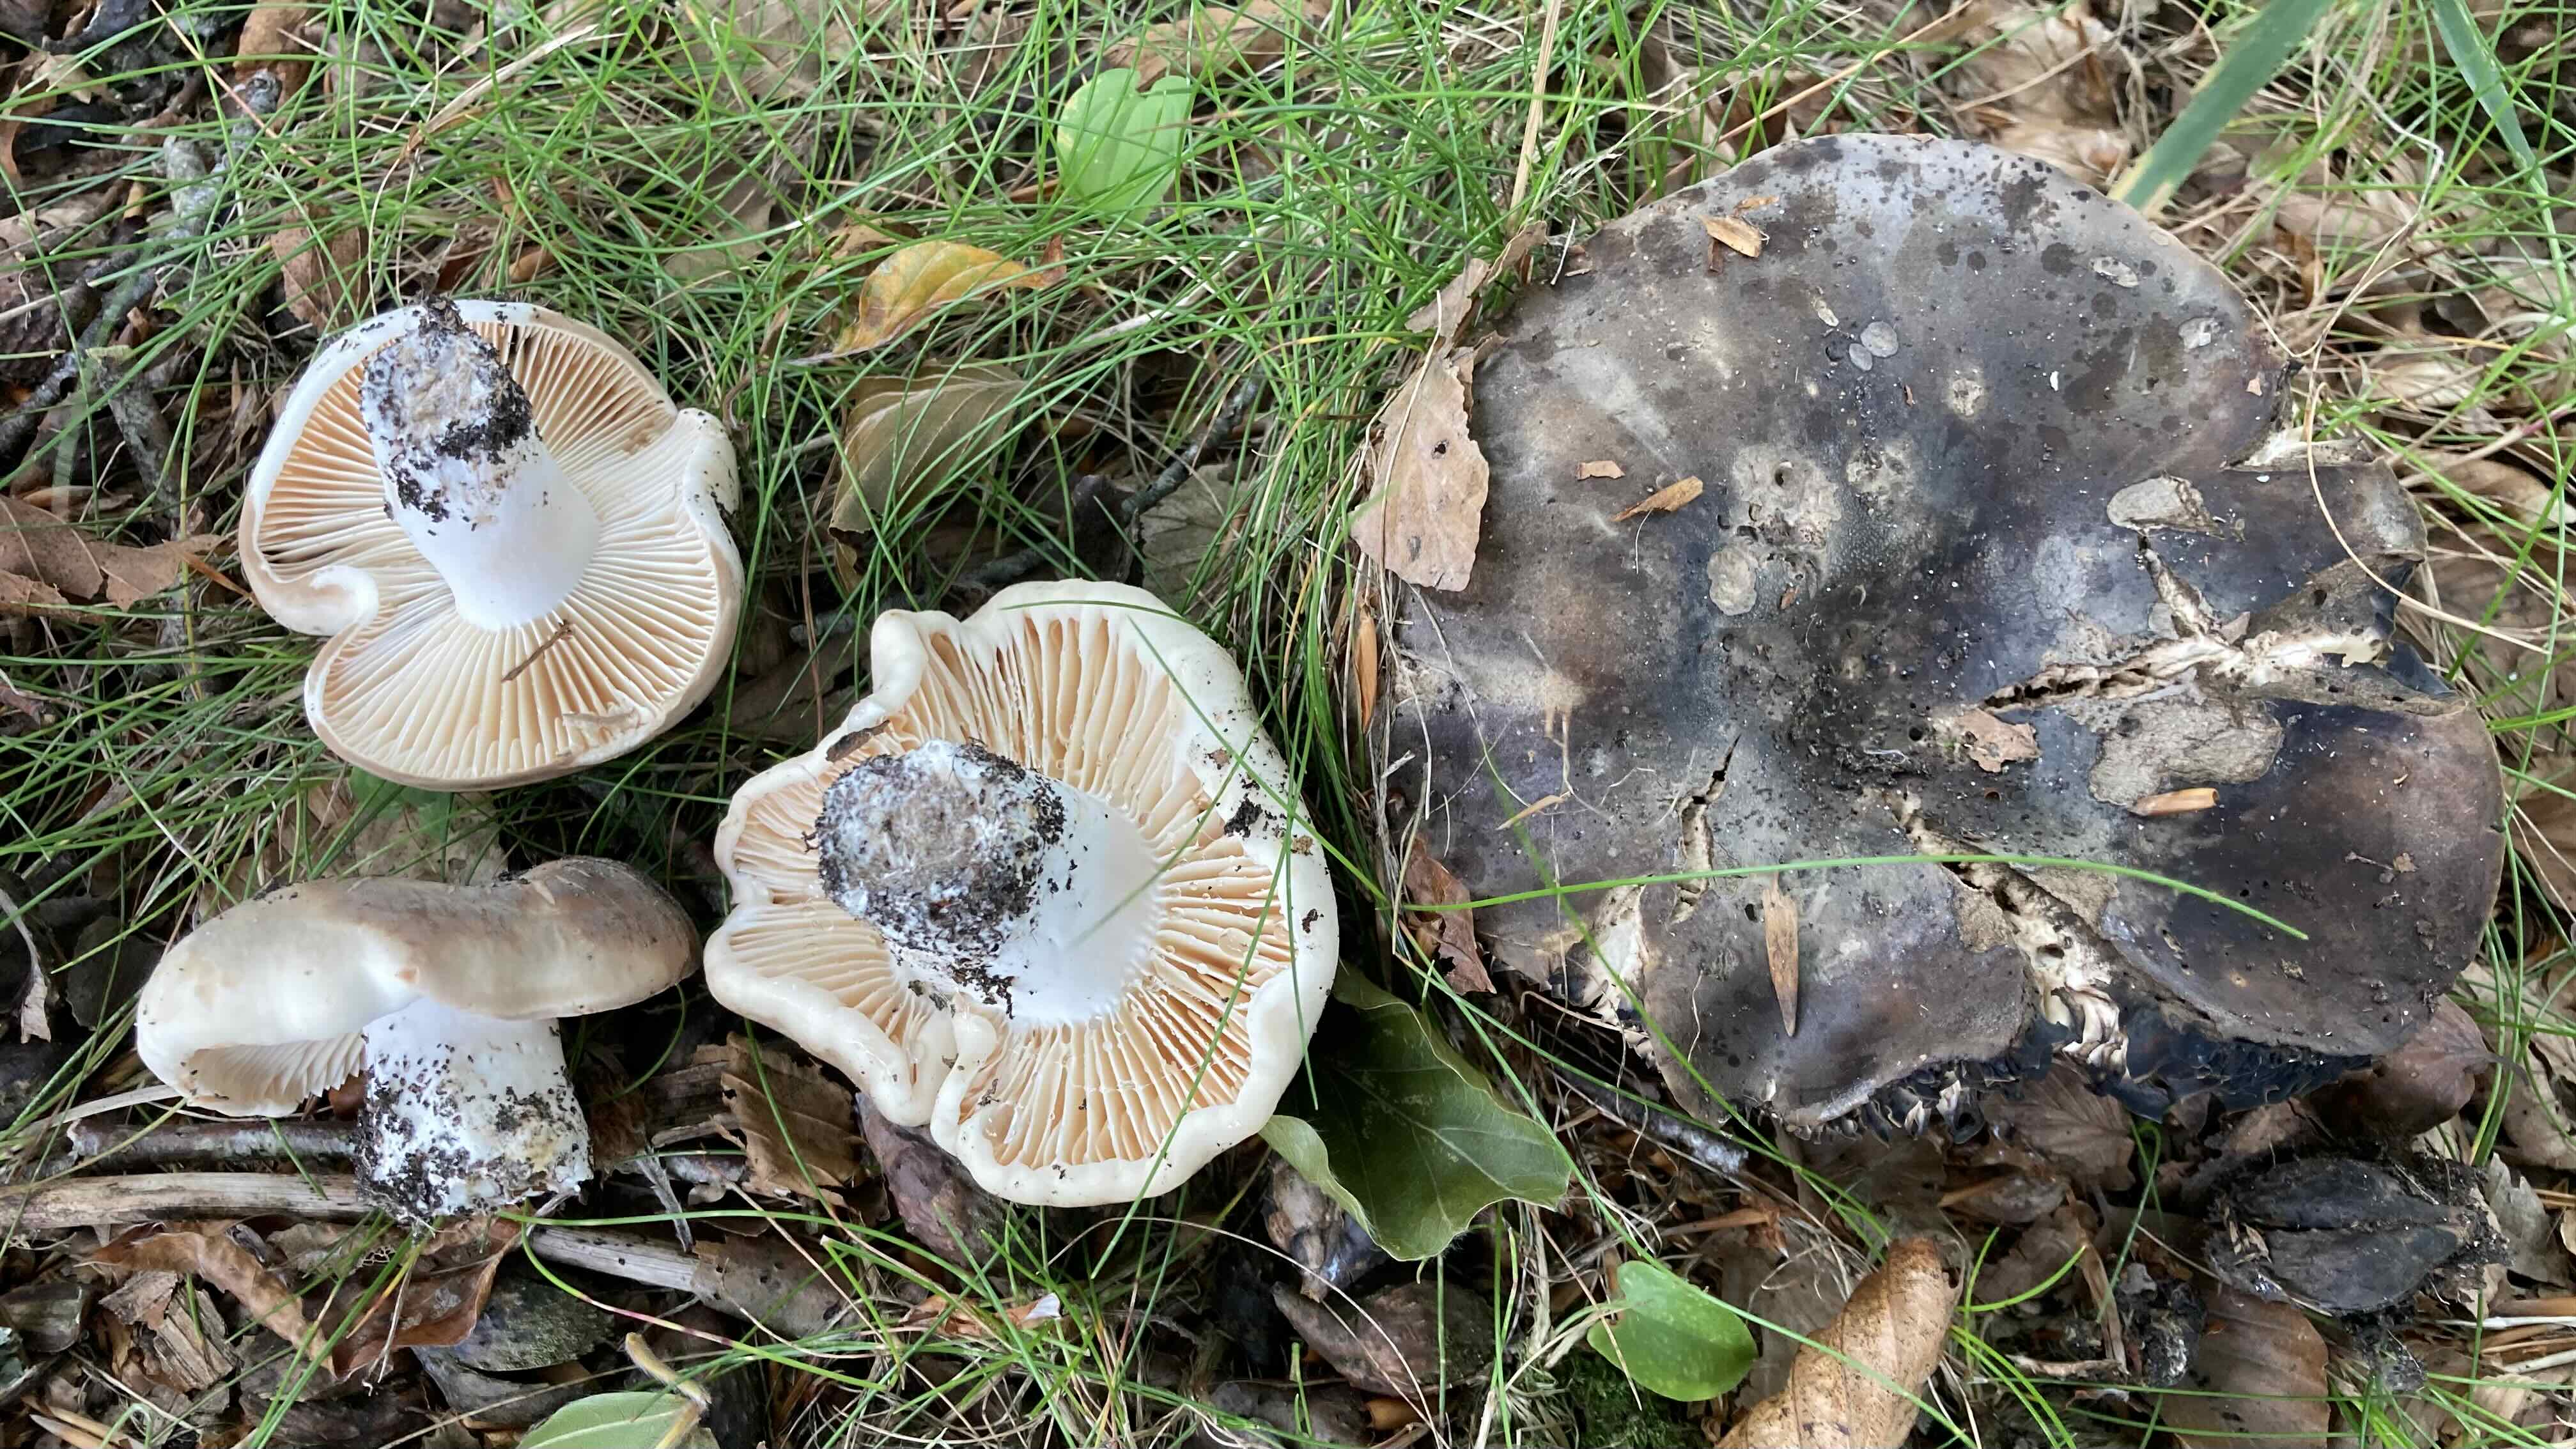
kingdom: Fungi
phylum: Basidiomycota
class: Agaricomycetes
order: Russulales
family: Russulaceae
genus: Russula
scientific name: Russula adusta
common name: sværtende skørhat
